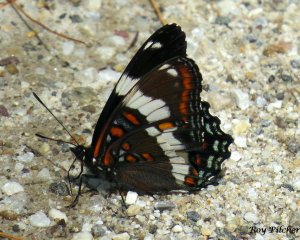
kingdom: Animalia
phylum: Arthropoda
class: Insecta
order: Lepidoptera
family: Nymphalidae
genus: Limenitis
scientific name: Limenitis arthemis
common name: Red-spotted Admiral
